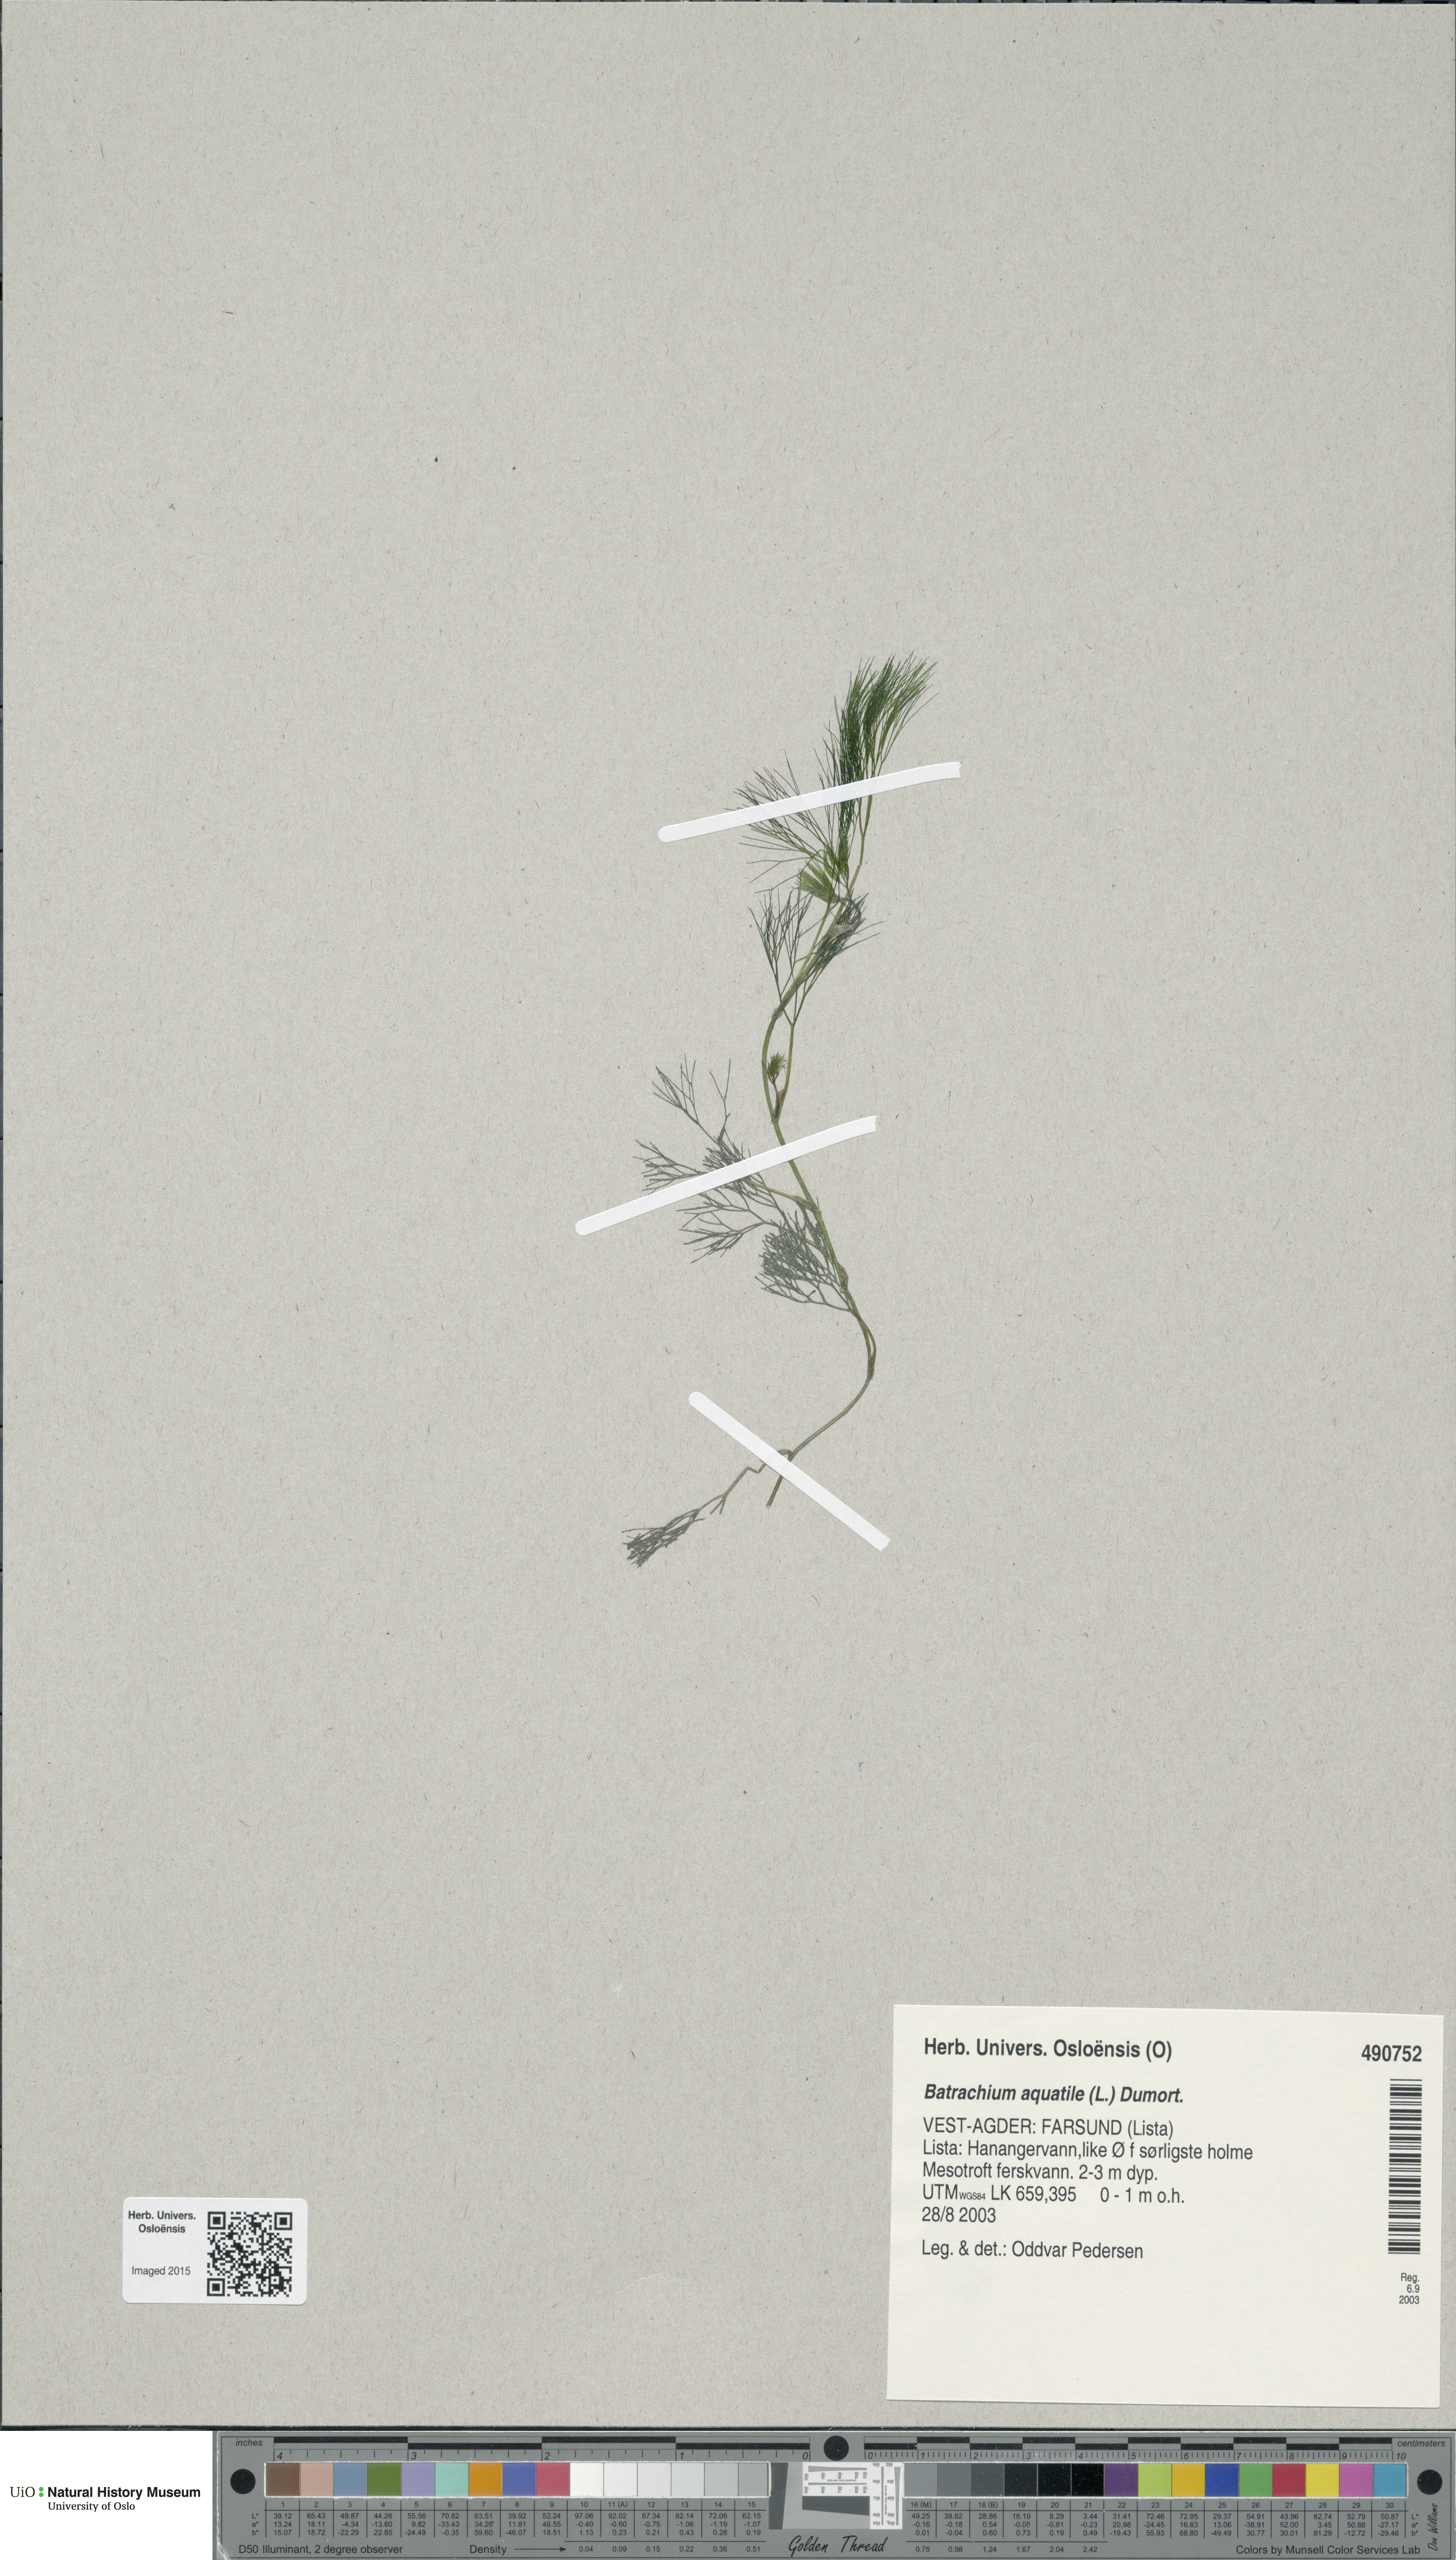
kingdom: Plantae
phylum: Tracheophyta
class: Magnoliopsida
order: Ranunculales
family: Ranunculaceae
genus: Ranunculus
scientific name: Ranunculus aquatilis
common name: Common water-crowfoot
